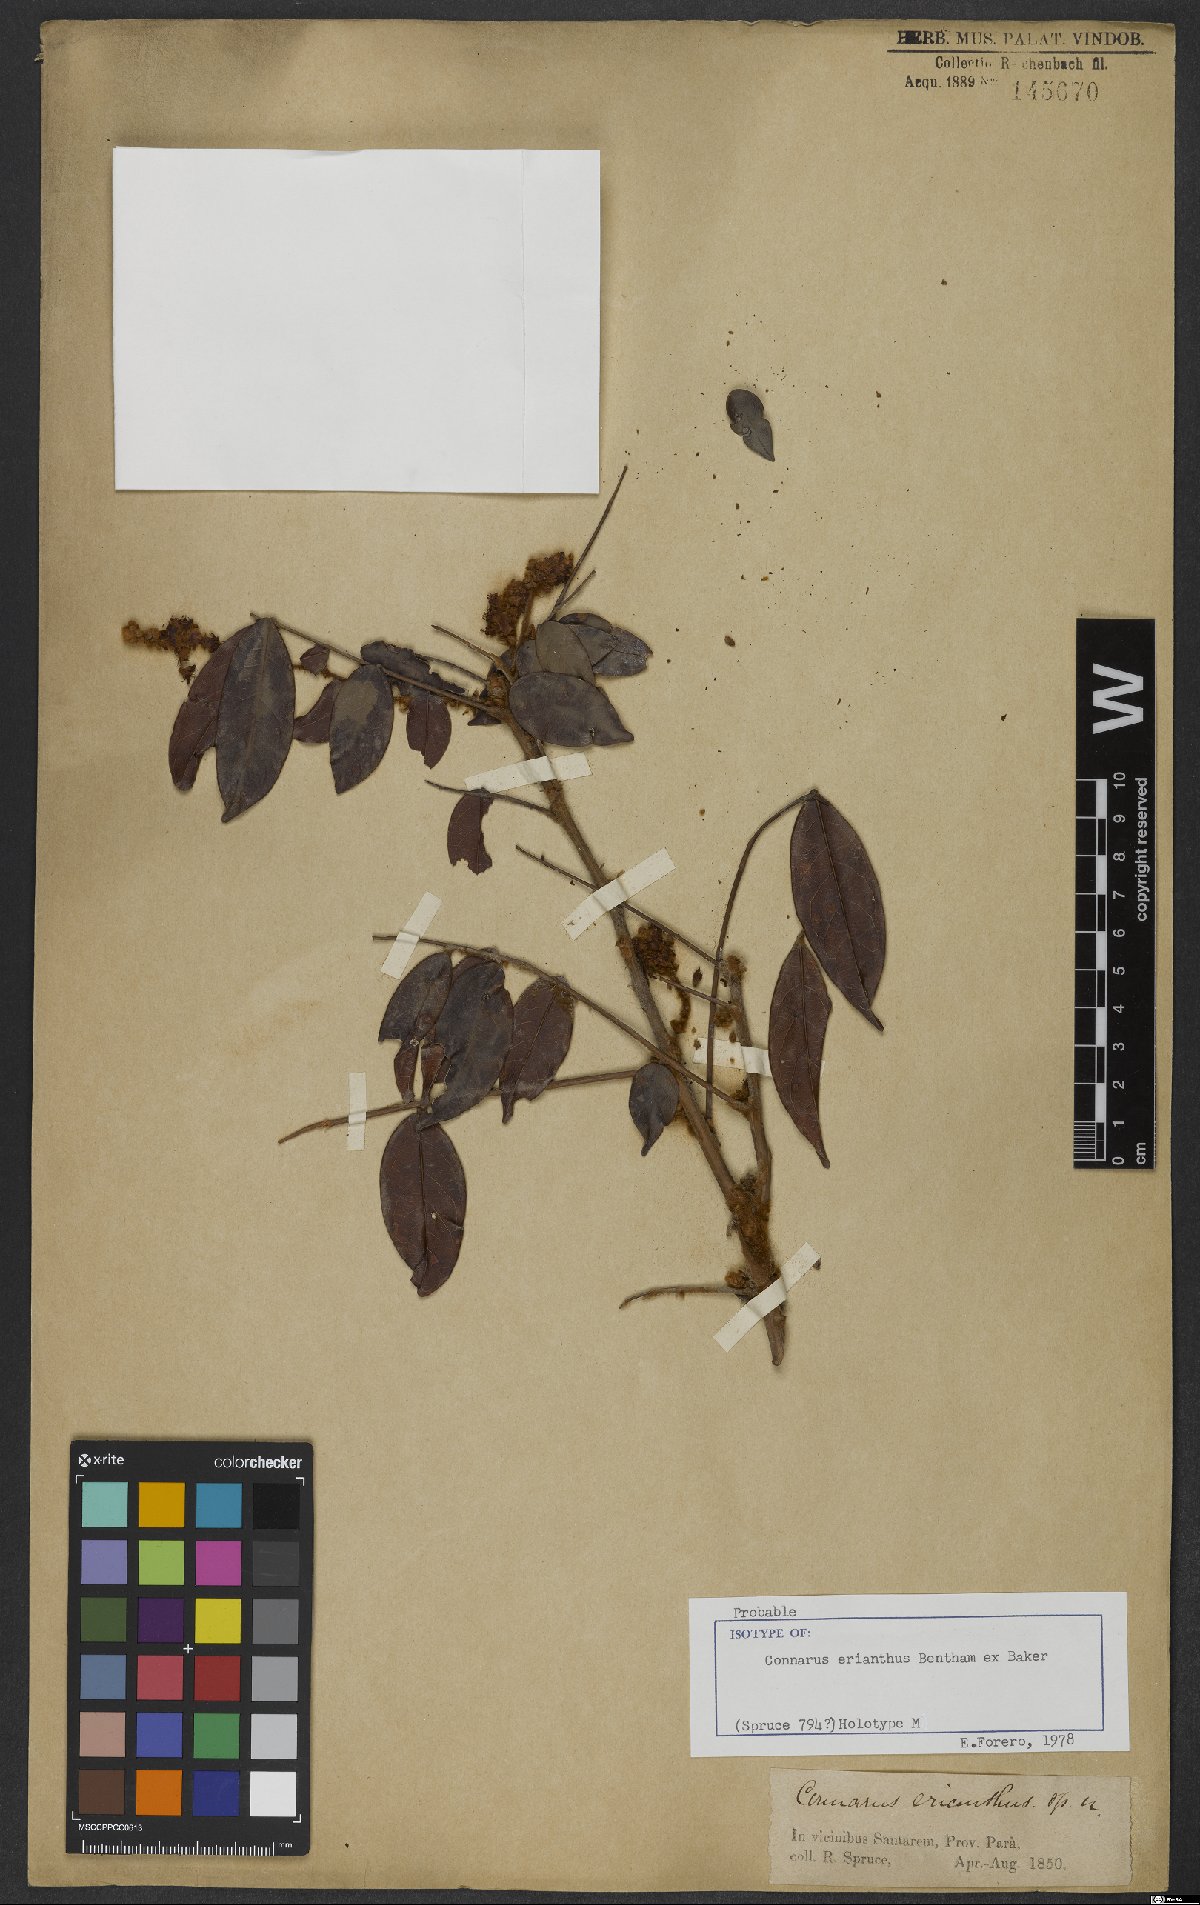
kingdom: Plantae
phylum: Tracheophyta
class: Magnoliopsida
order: Oxalidales
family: Connaraceae
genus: Connarus
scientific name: Connarus erianthus
